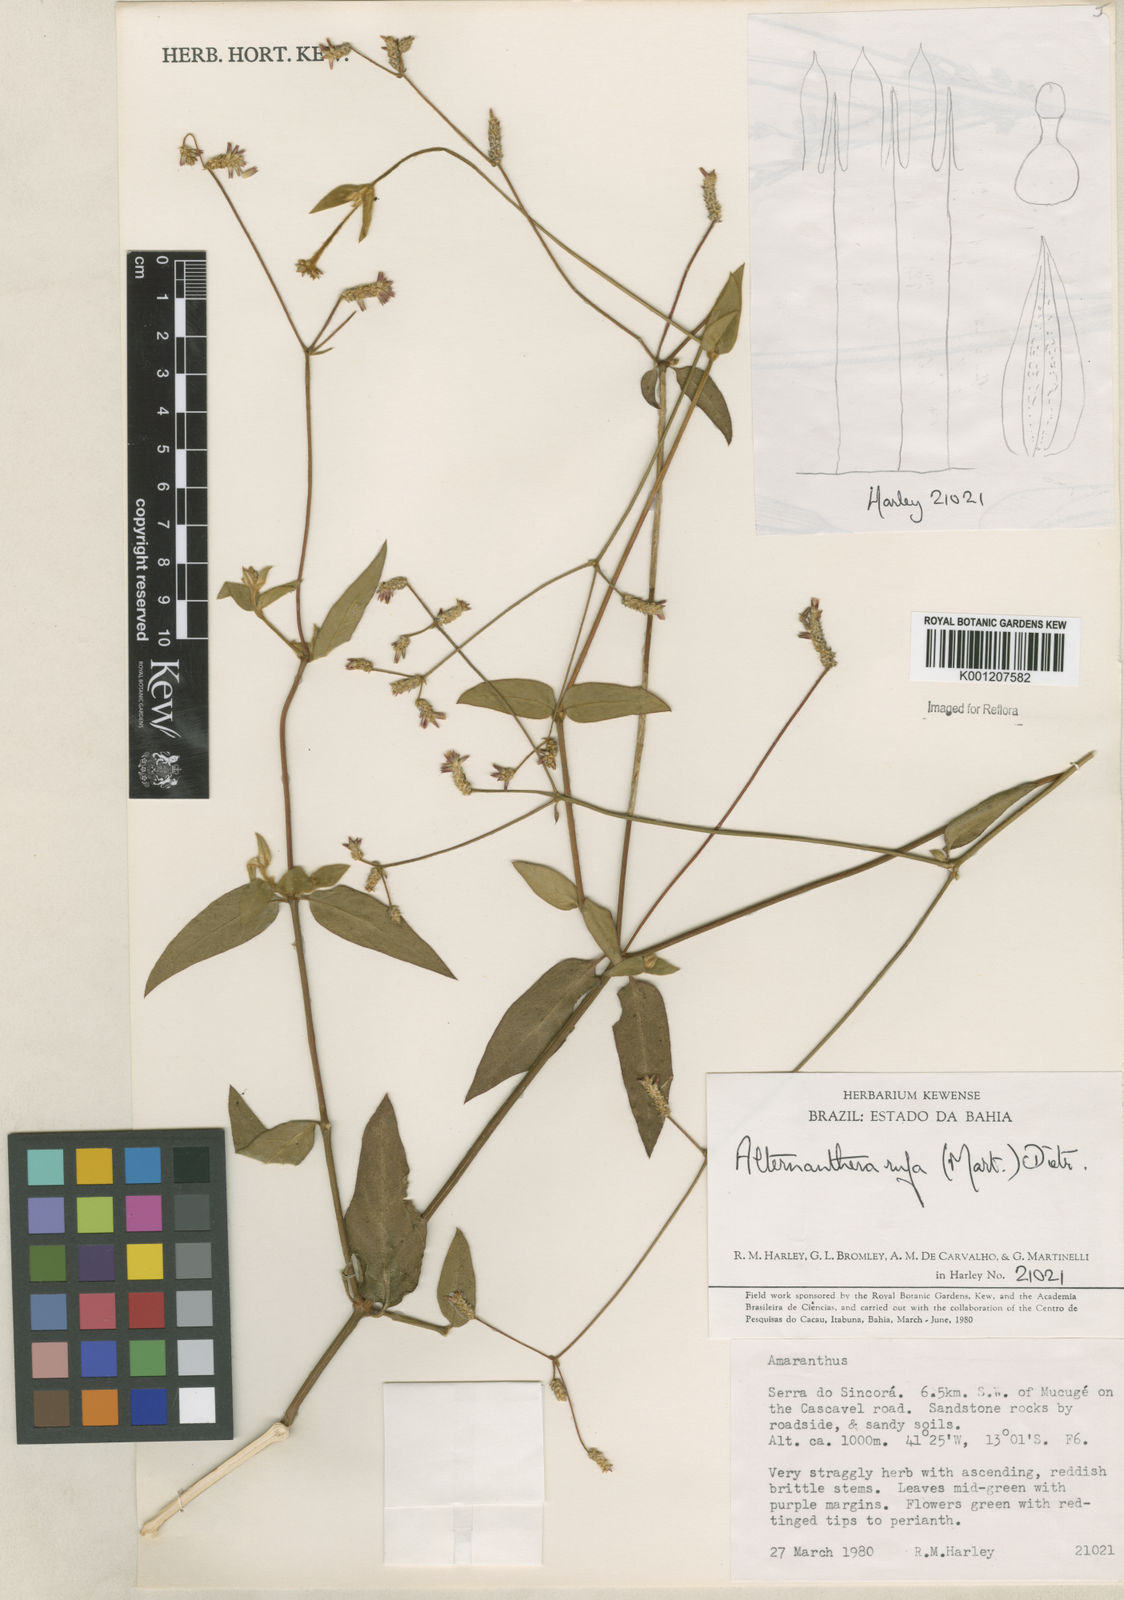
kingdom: Plantae
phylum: Tracheophyta
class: Magnoliopsida
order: Caryophyllales
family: Amaranthaceae
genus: Alternanthera
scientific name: Alternanthera rufa
